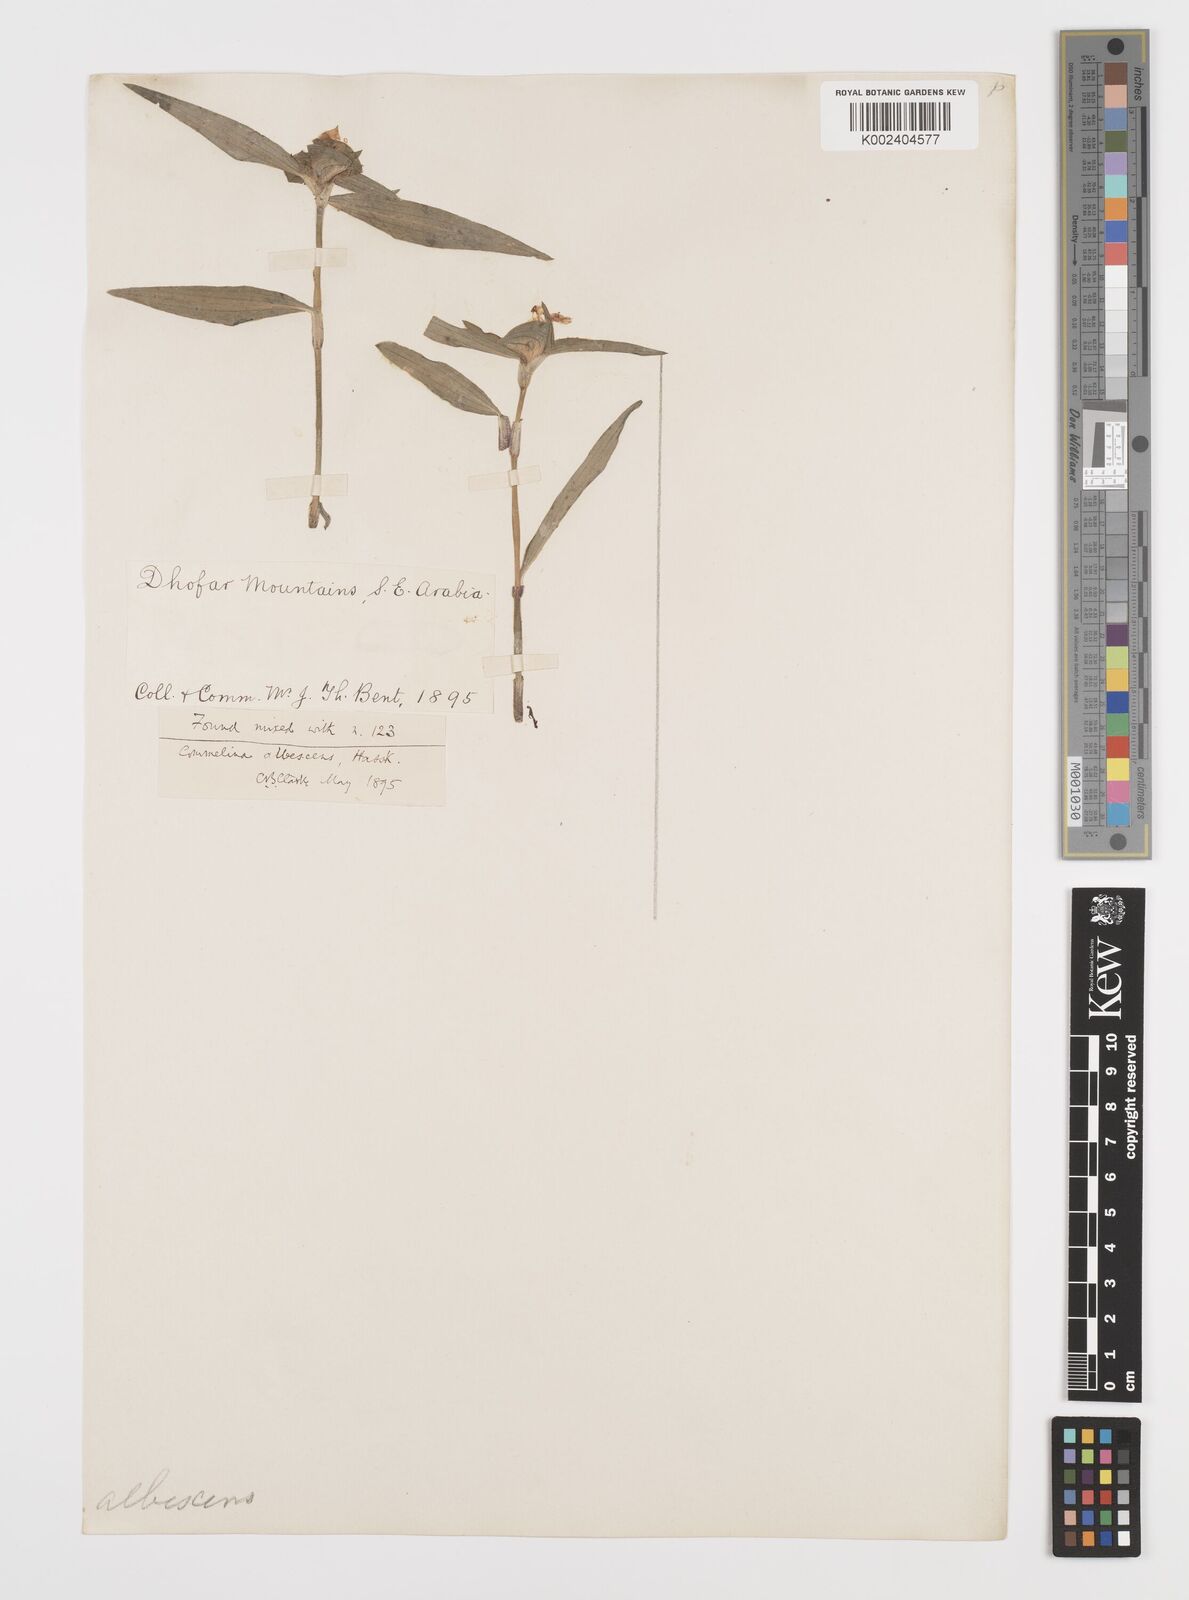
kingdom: Plantae
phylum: Tracheophyta
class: Liliopsida
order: Commelinales
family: Commelinaceae
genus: Commelina
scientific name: Commelina albescens
